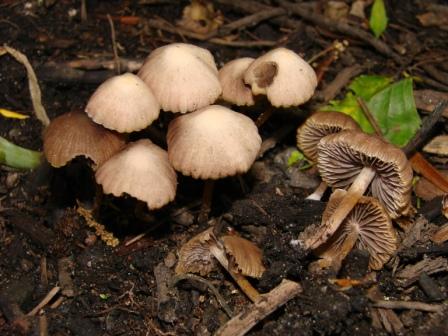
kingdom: Fungi
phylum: Basidiomycota
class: Agaricomycetes
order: Agaricales
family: Psathyrellaceae
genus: Psathyrella
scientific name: Psathyrella prona
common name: vej-mørkhat
